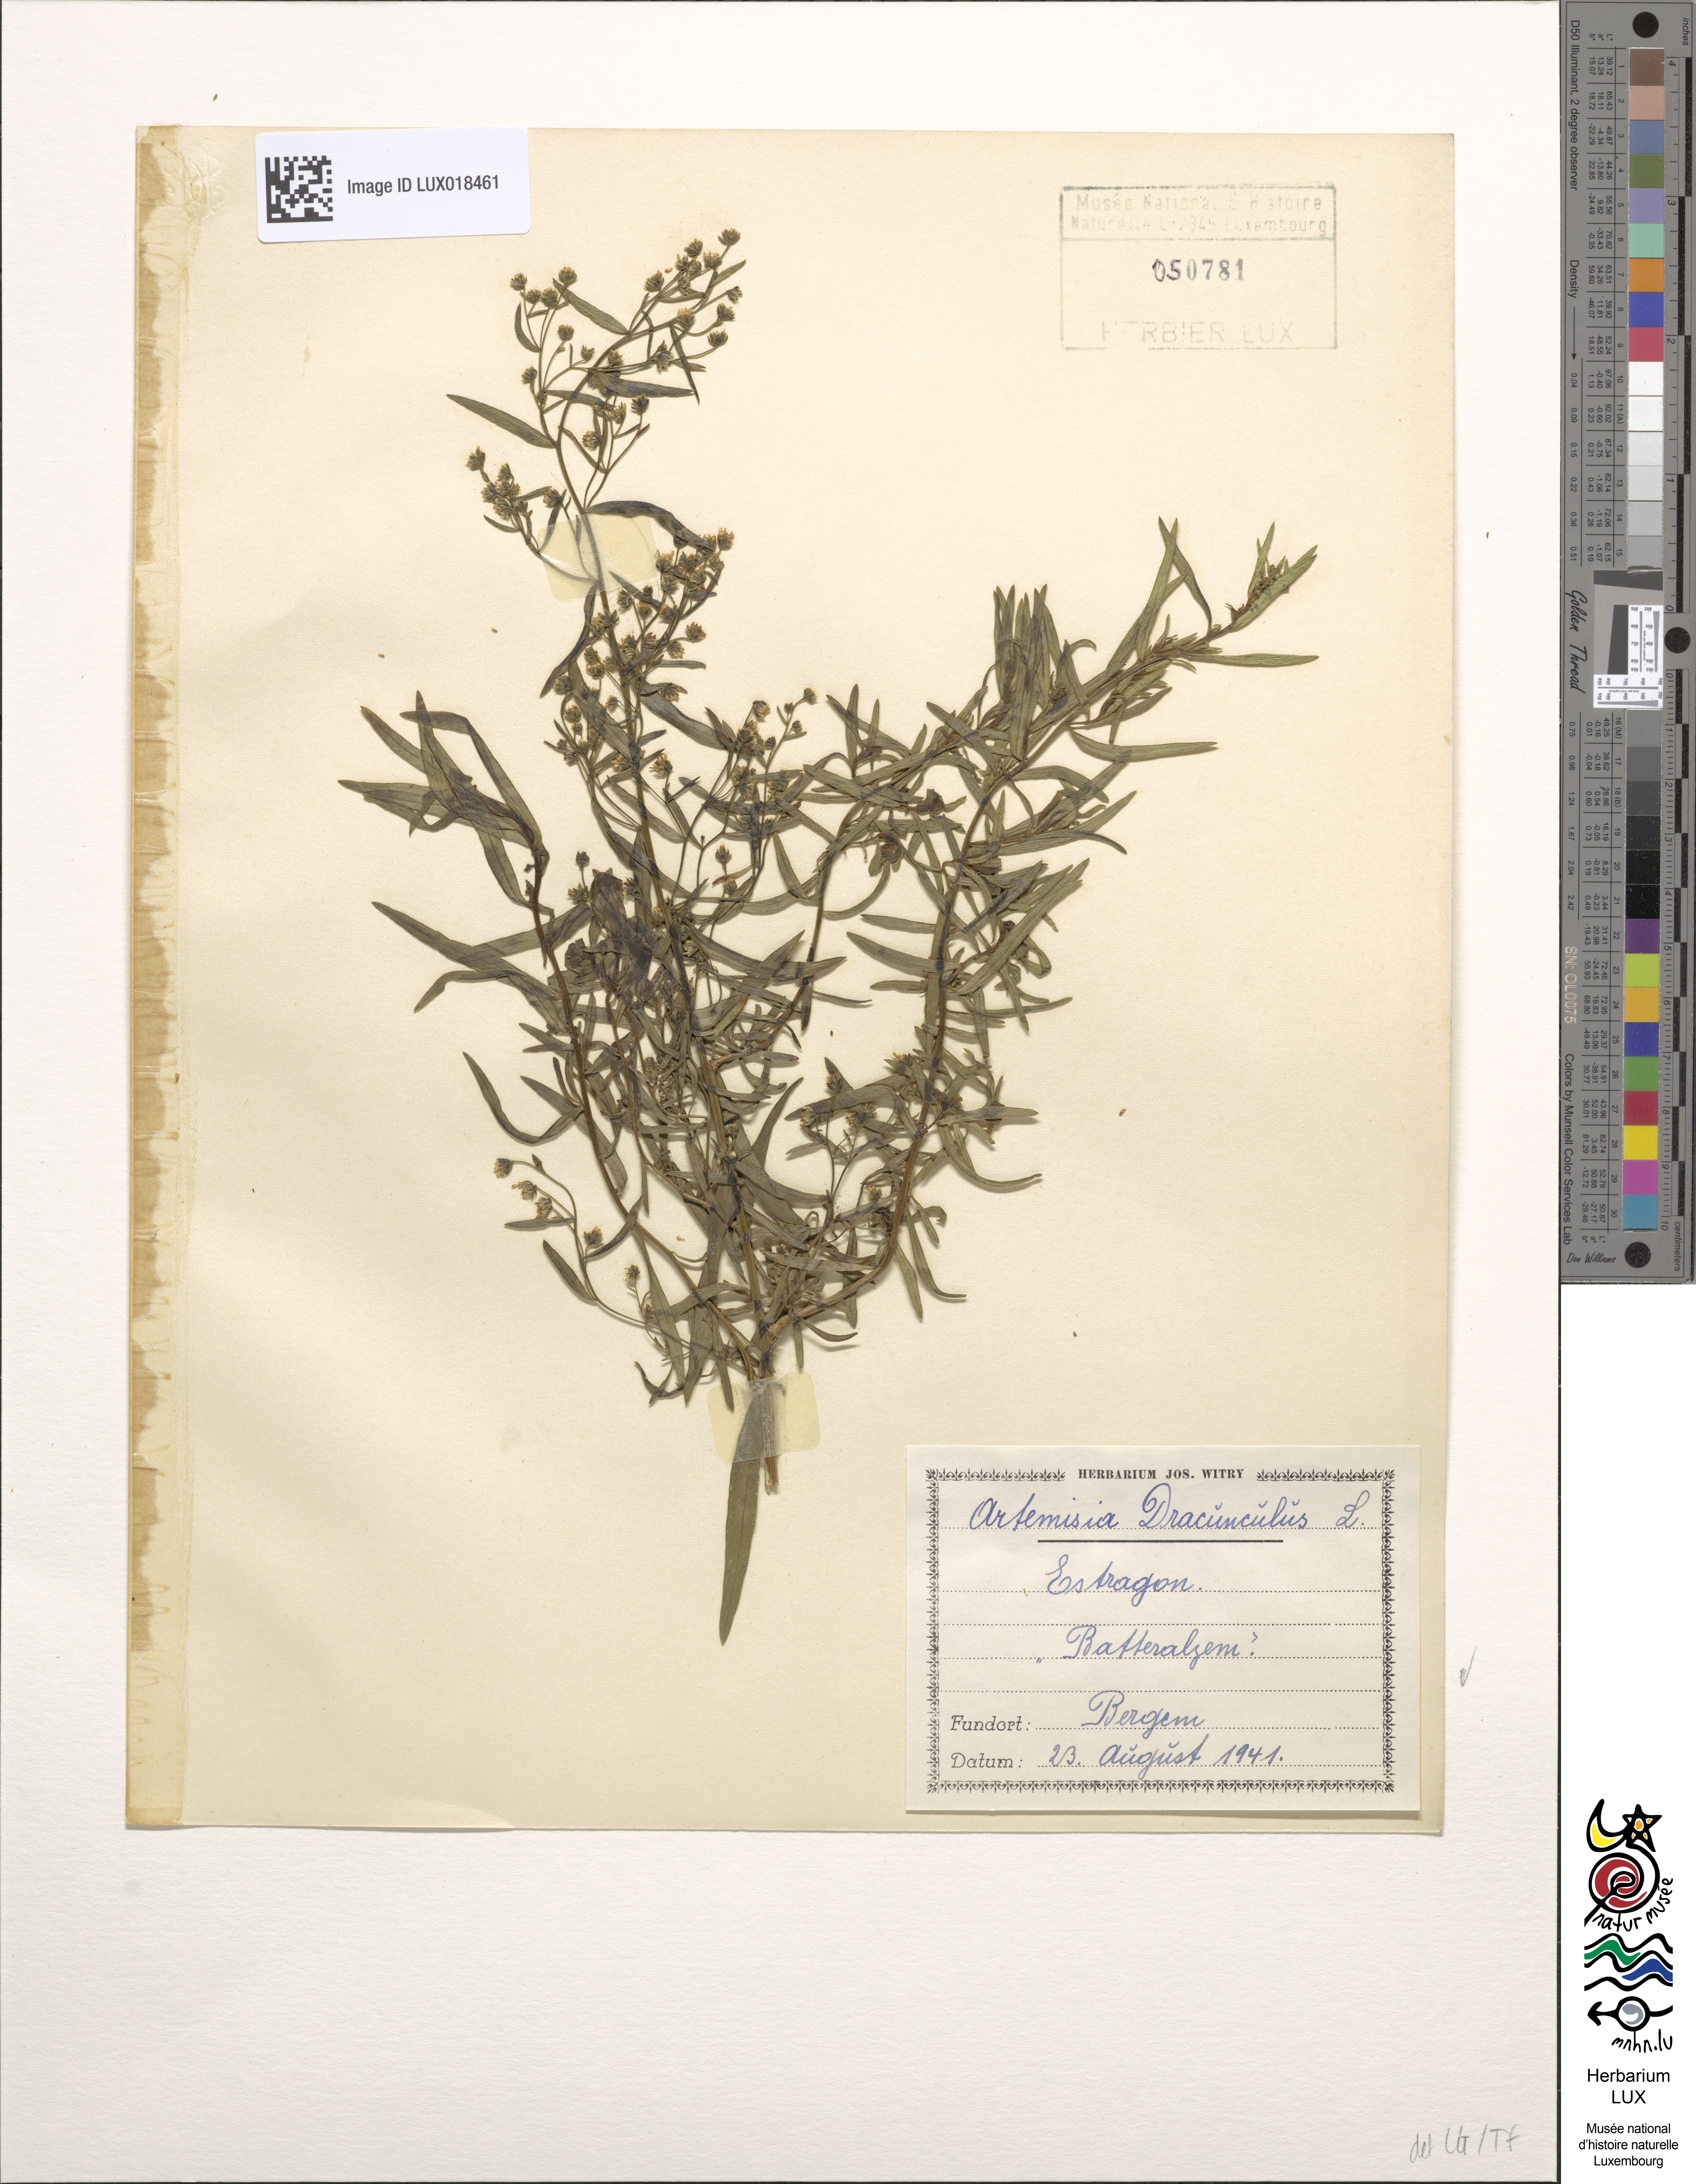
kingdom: Plantae
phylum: Tracheophyta
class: Magnoliopsida
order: Asterales
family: Asteraceae
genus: Artemisia
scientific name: Artemisia dracunculus
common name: Tarragon
